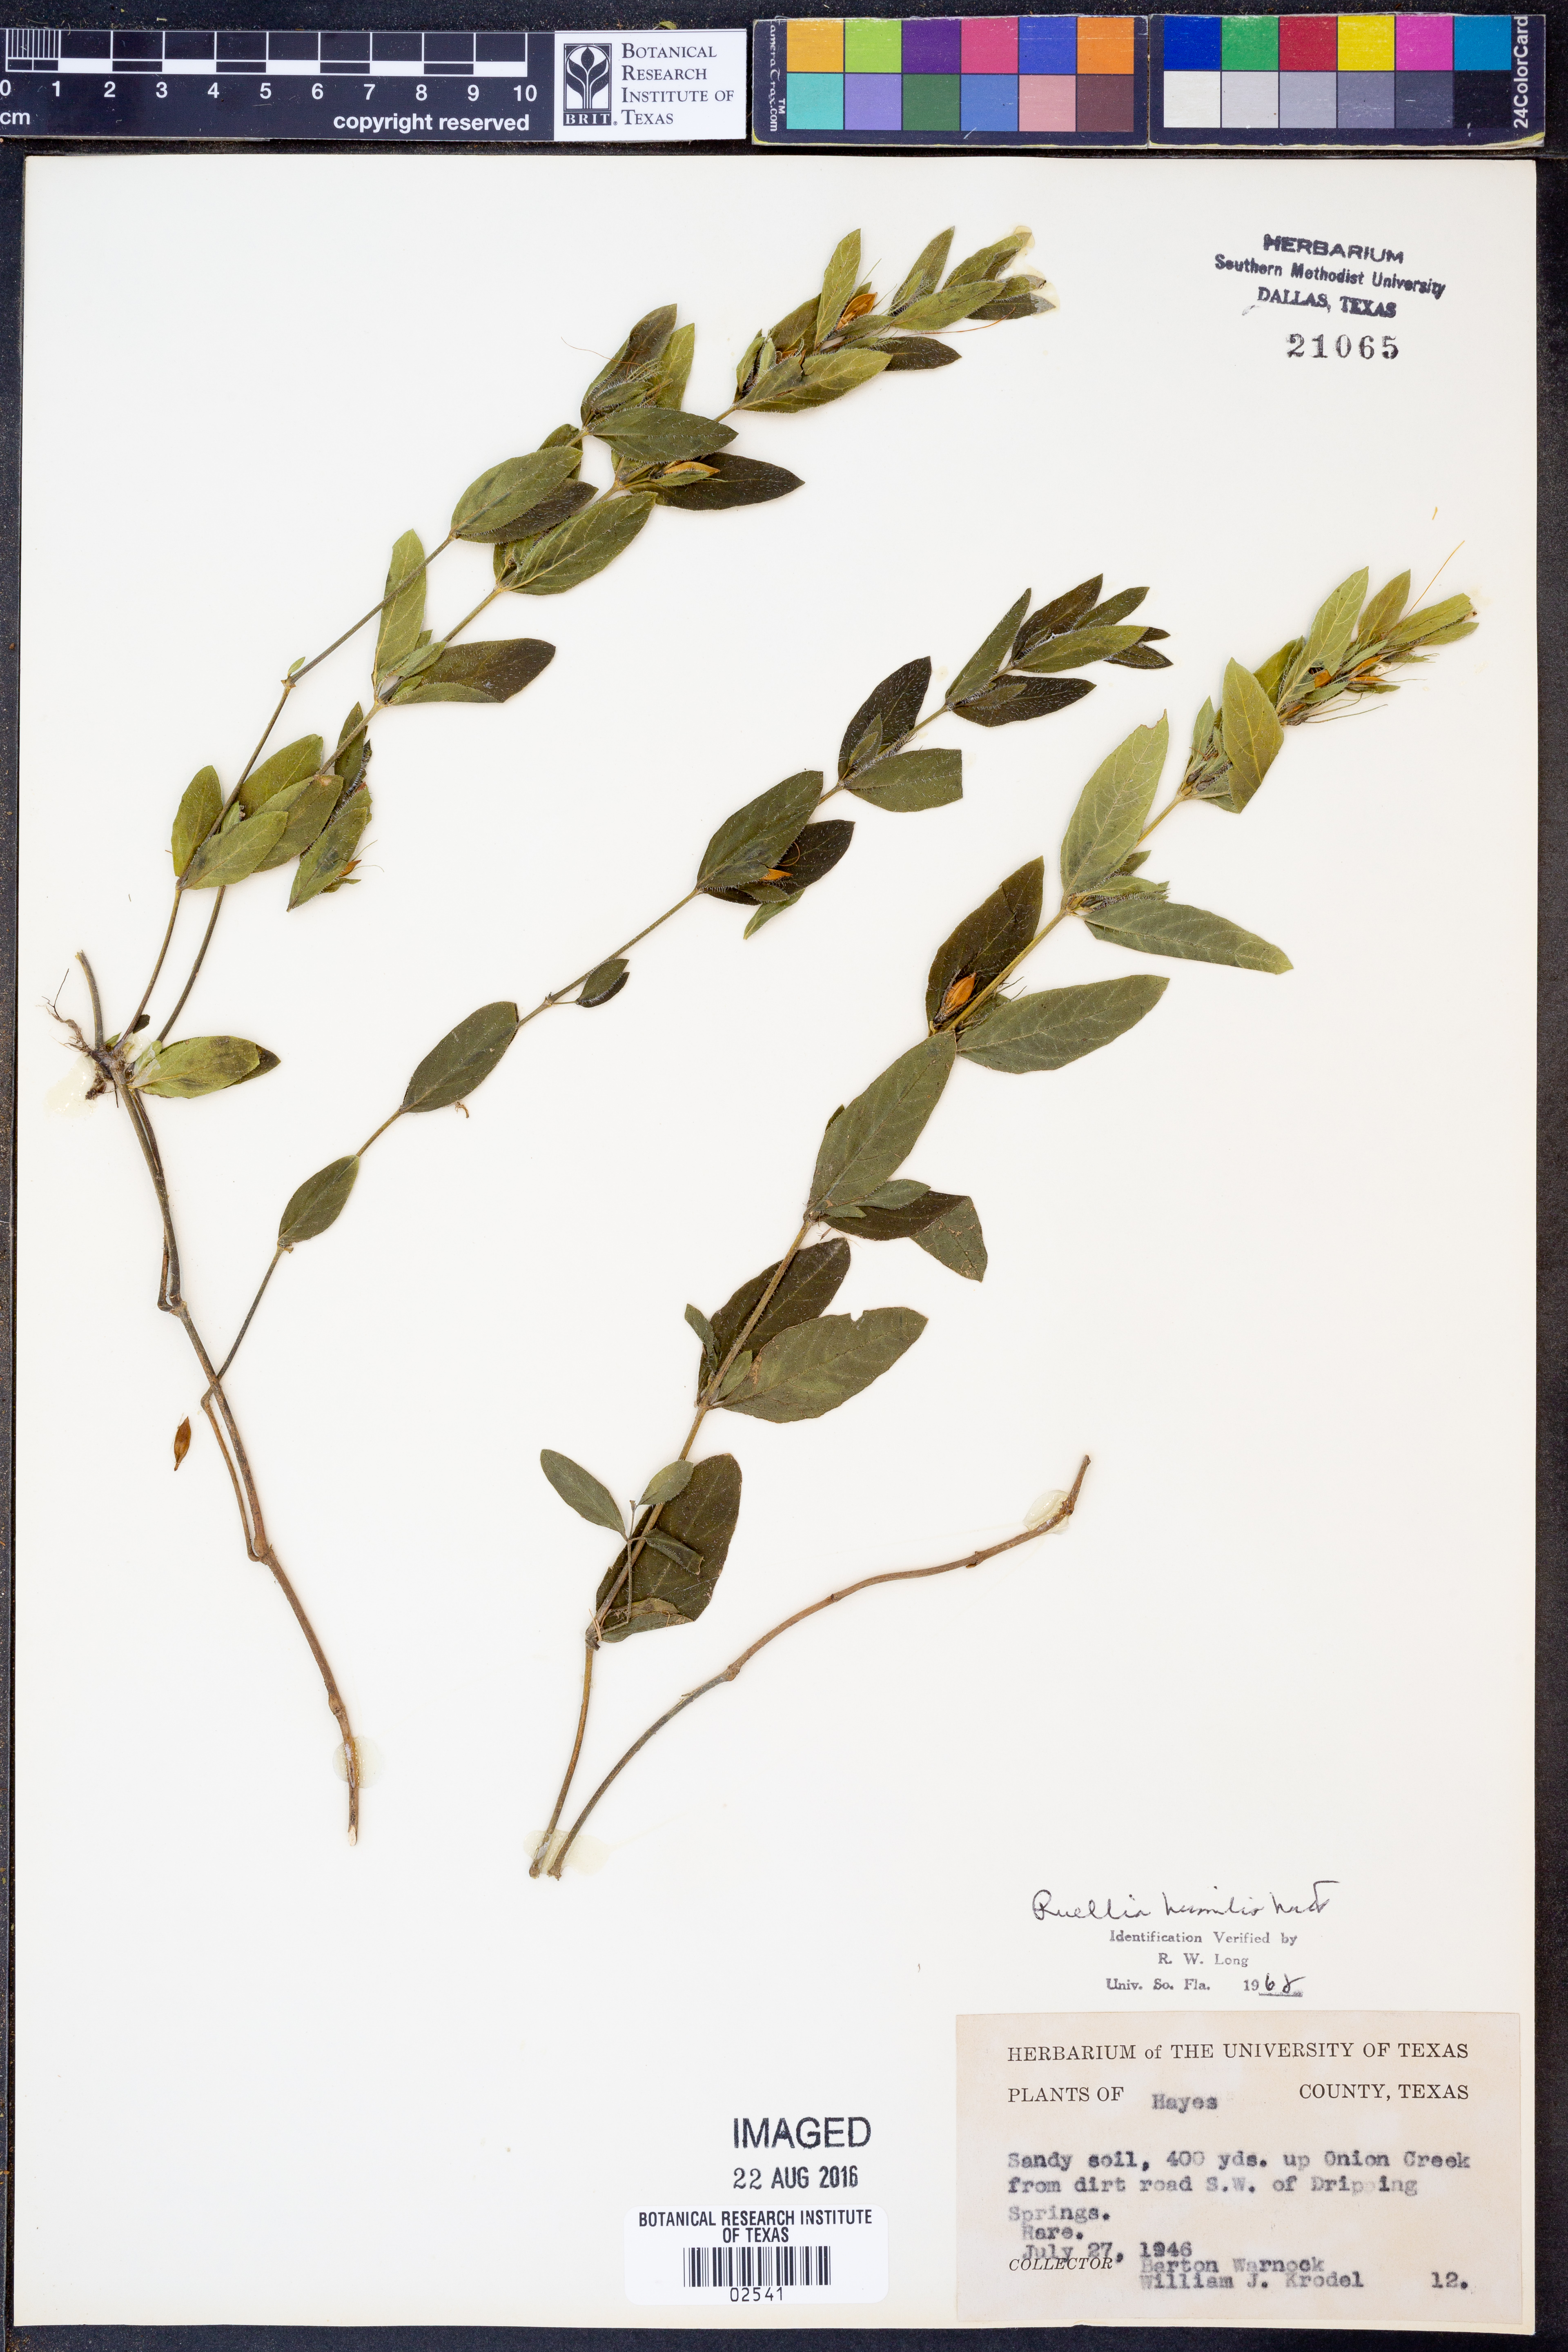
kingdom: Plantae
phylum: Tracheophyta
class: Magnoliopsida
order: Lamiales
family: Acanthaceae
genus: Ruellia
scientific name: Ruellia humilis
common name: Fringe-leaf ruellia
